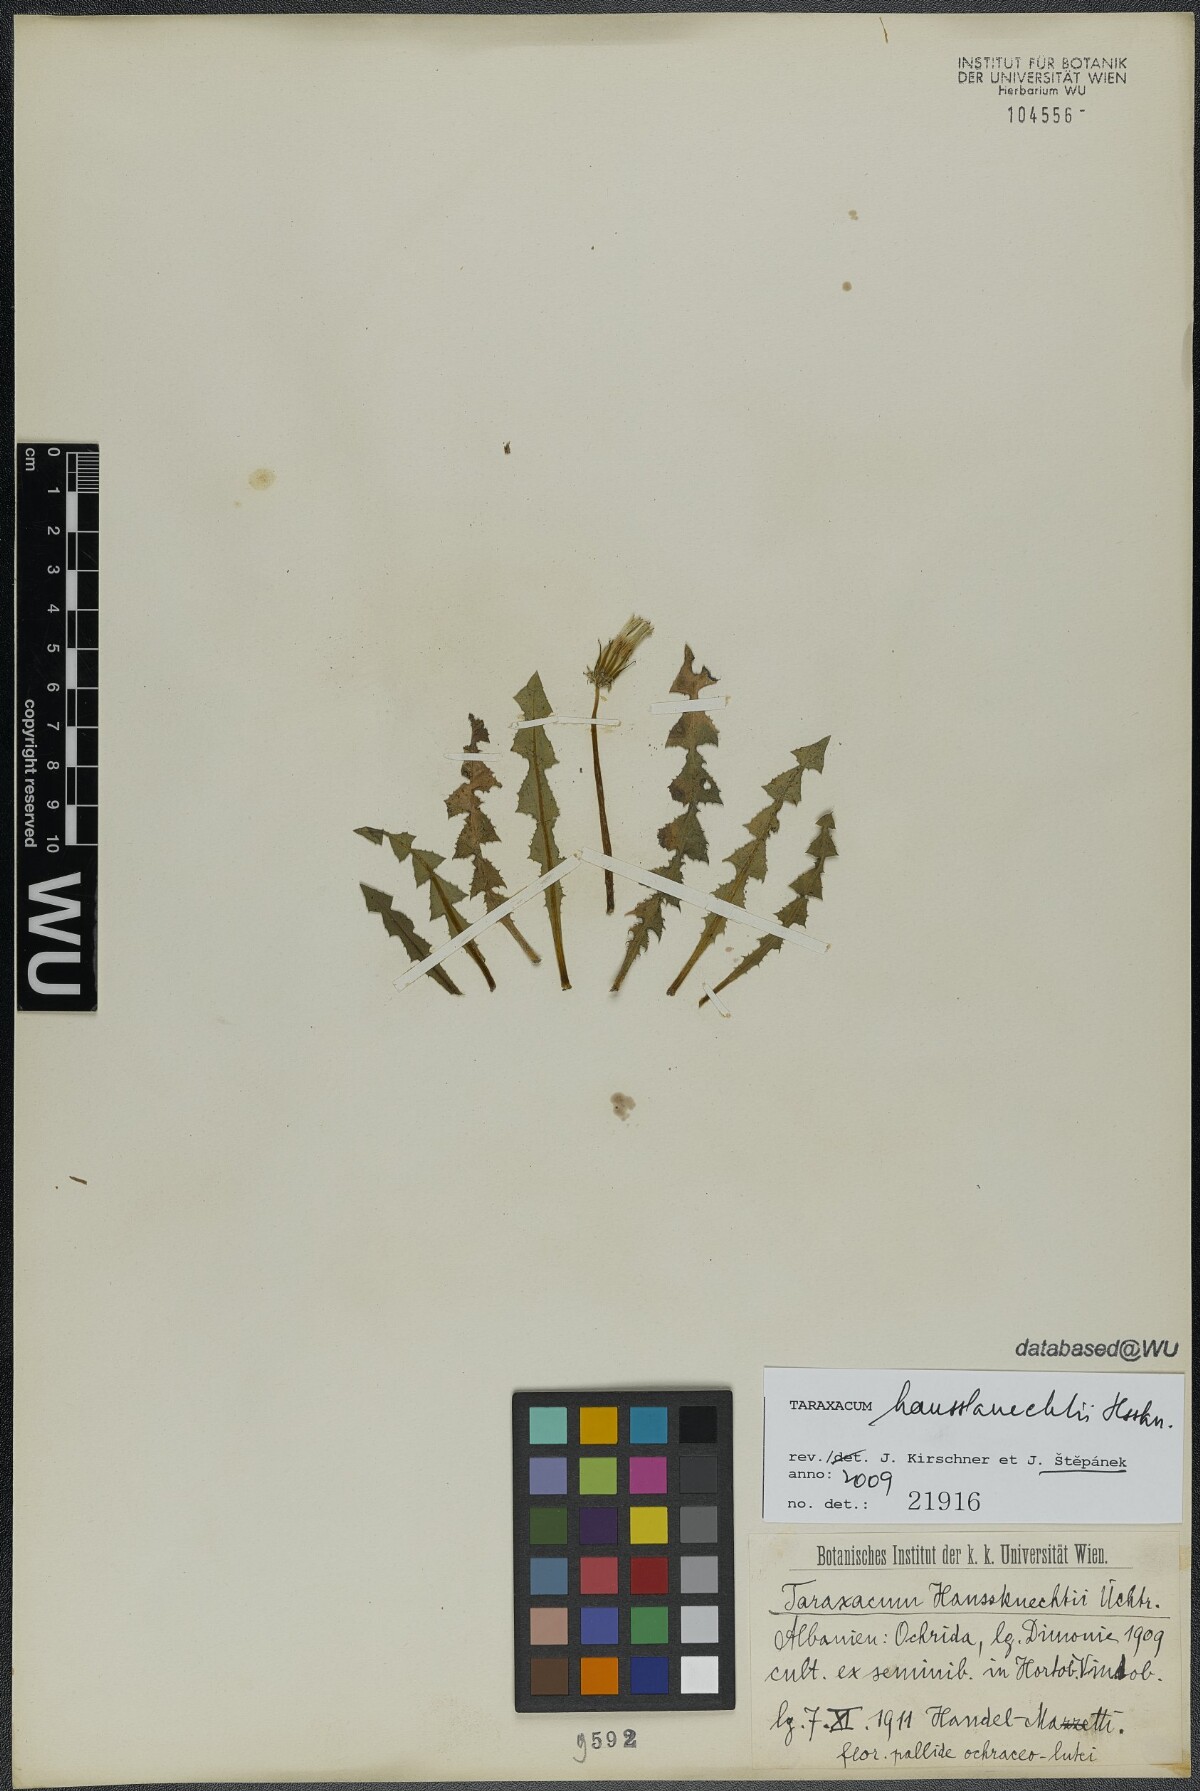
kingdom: Plantae
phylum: Tracheophyta
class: Magnoliopsida
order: Asterales
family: Asteraceae
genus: Taraxacum
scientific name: Taraxacum haussknechtii
